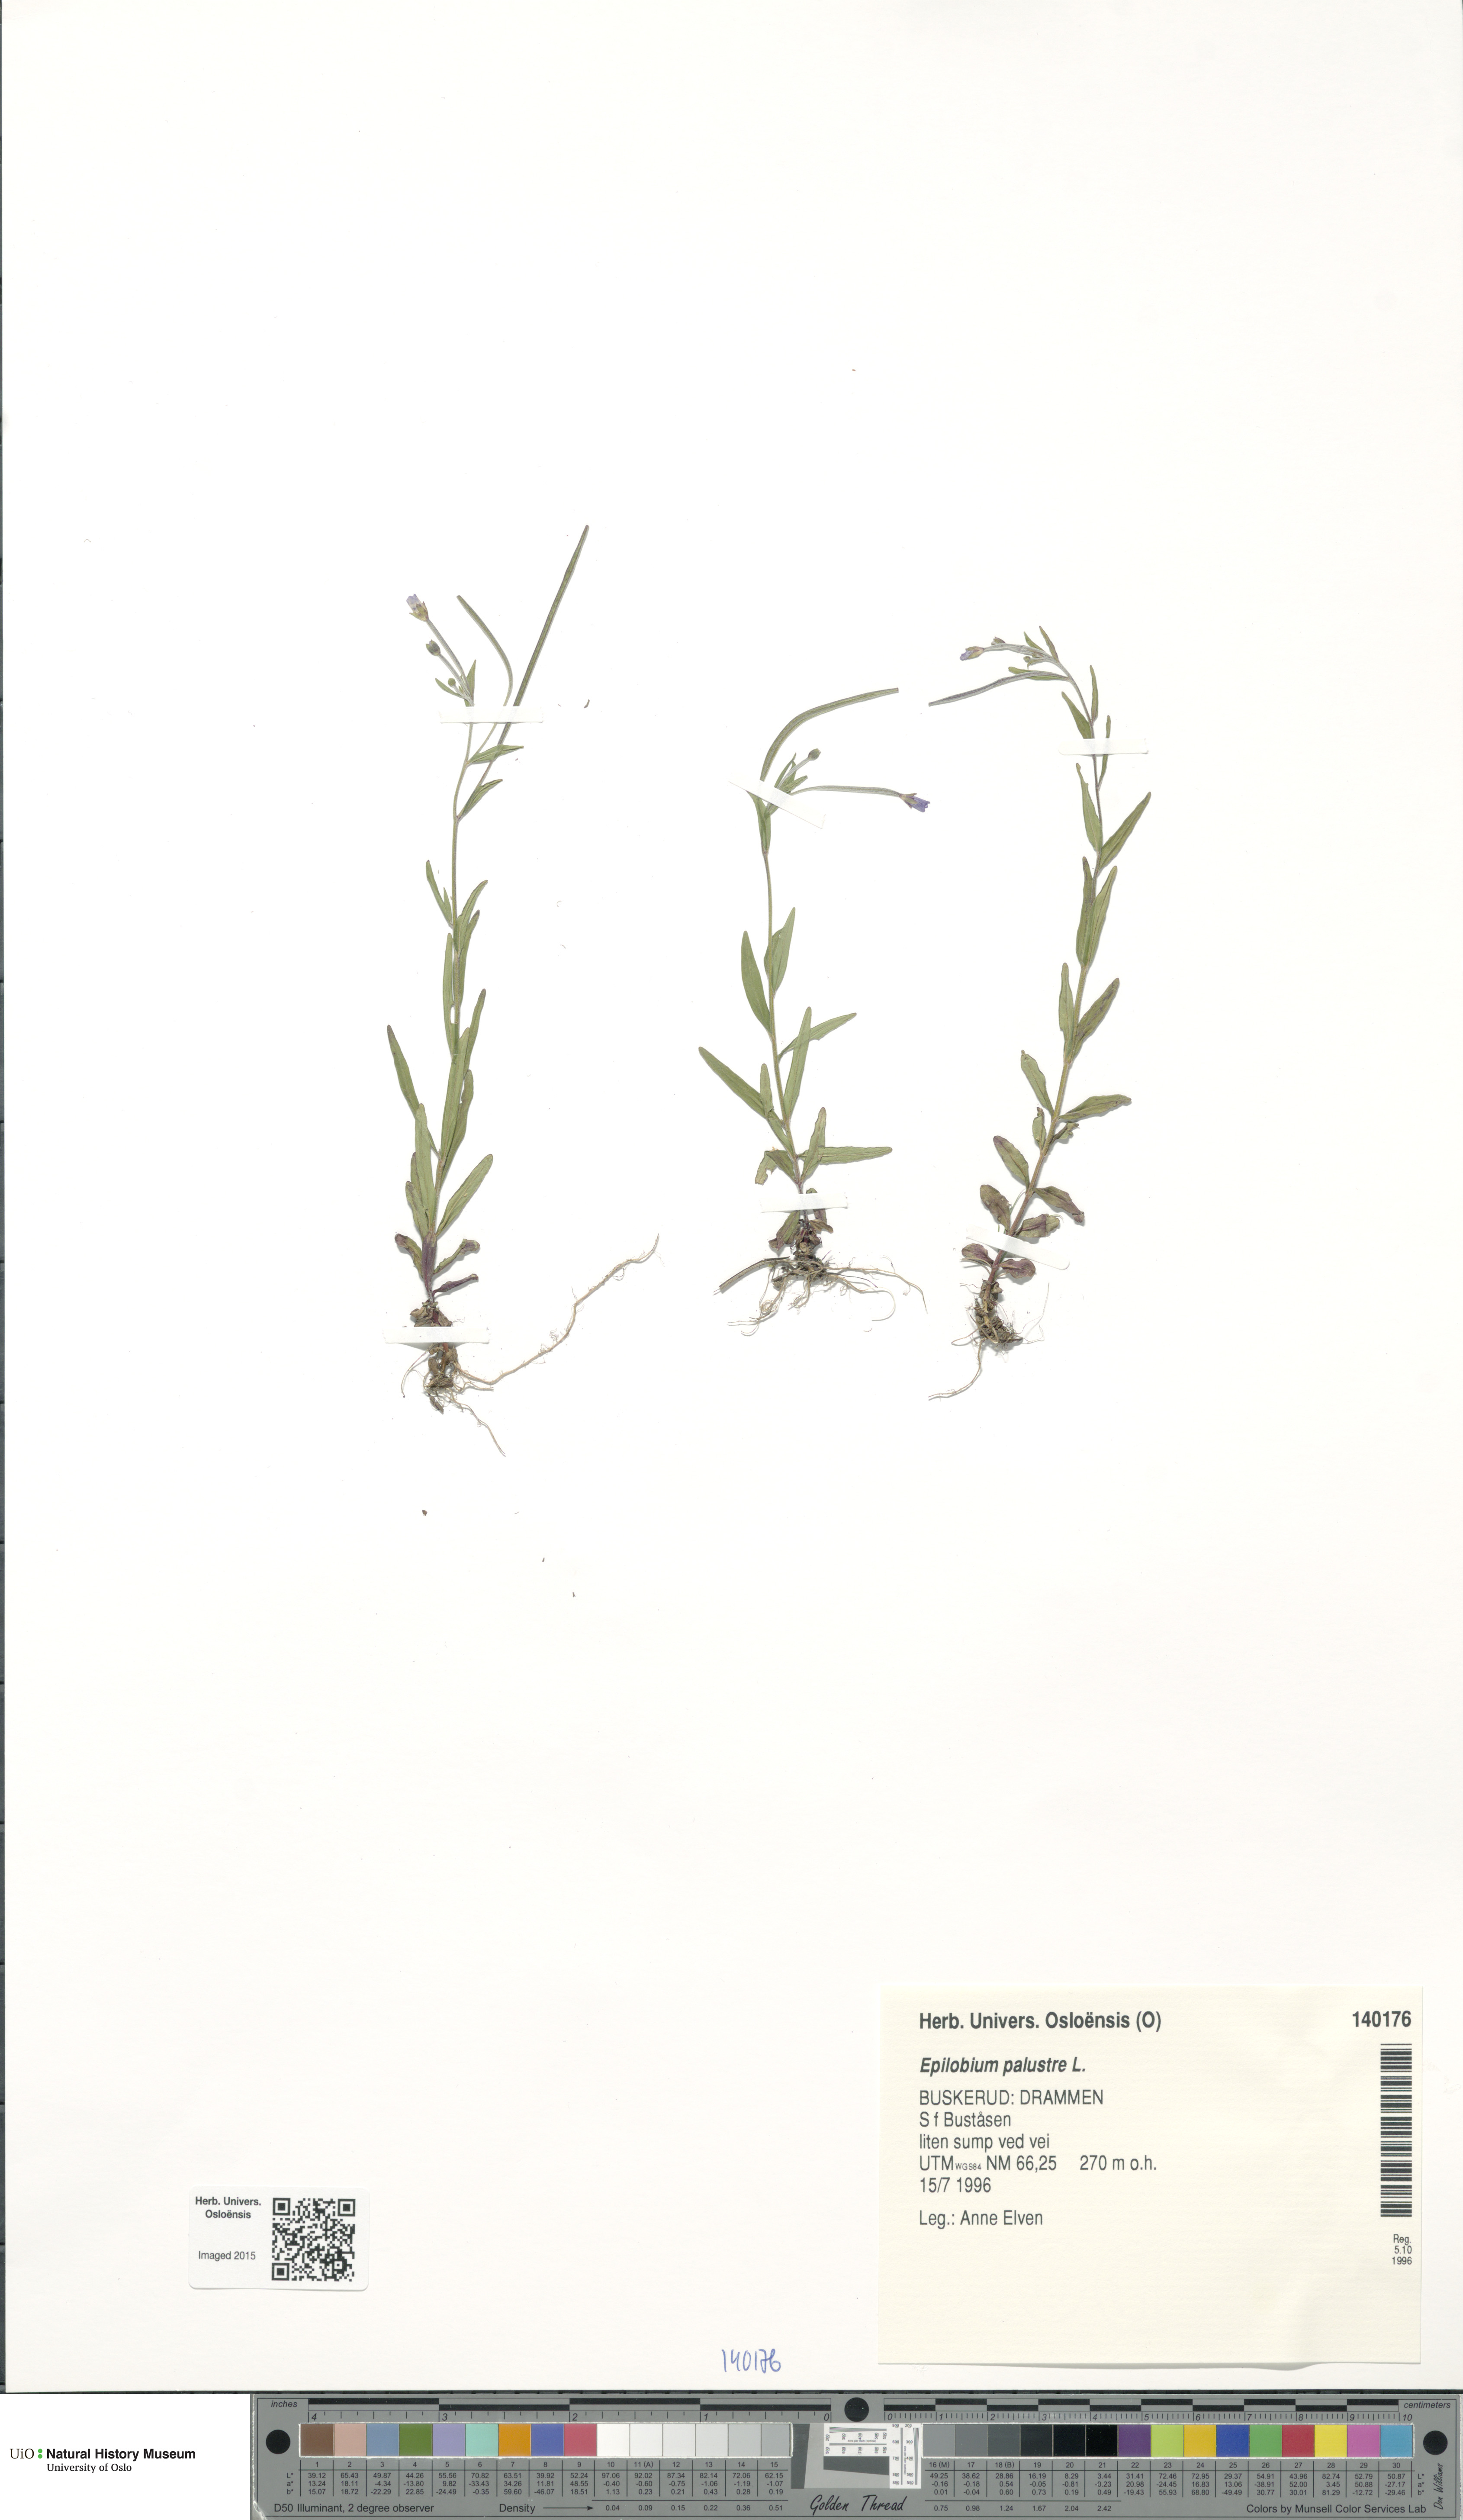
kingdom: Plantae
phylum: Tracheophyta
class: Magnoliopsida
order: Myrtales
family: Onagraceae
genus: Epilobium
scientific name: Epilobium palustre
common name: Marsh willowherb
